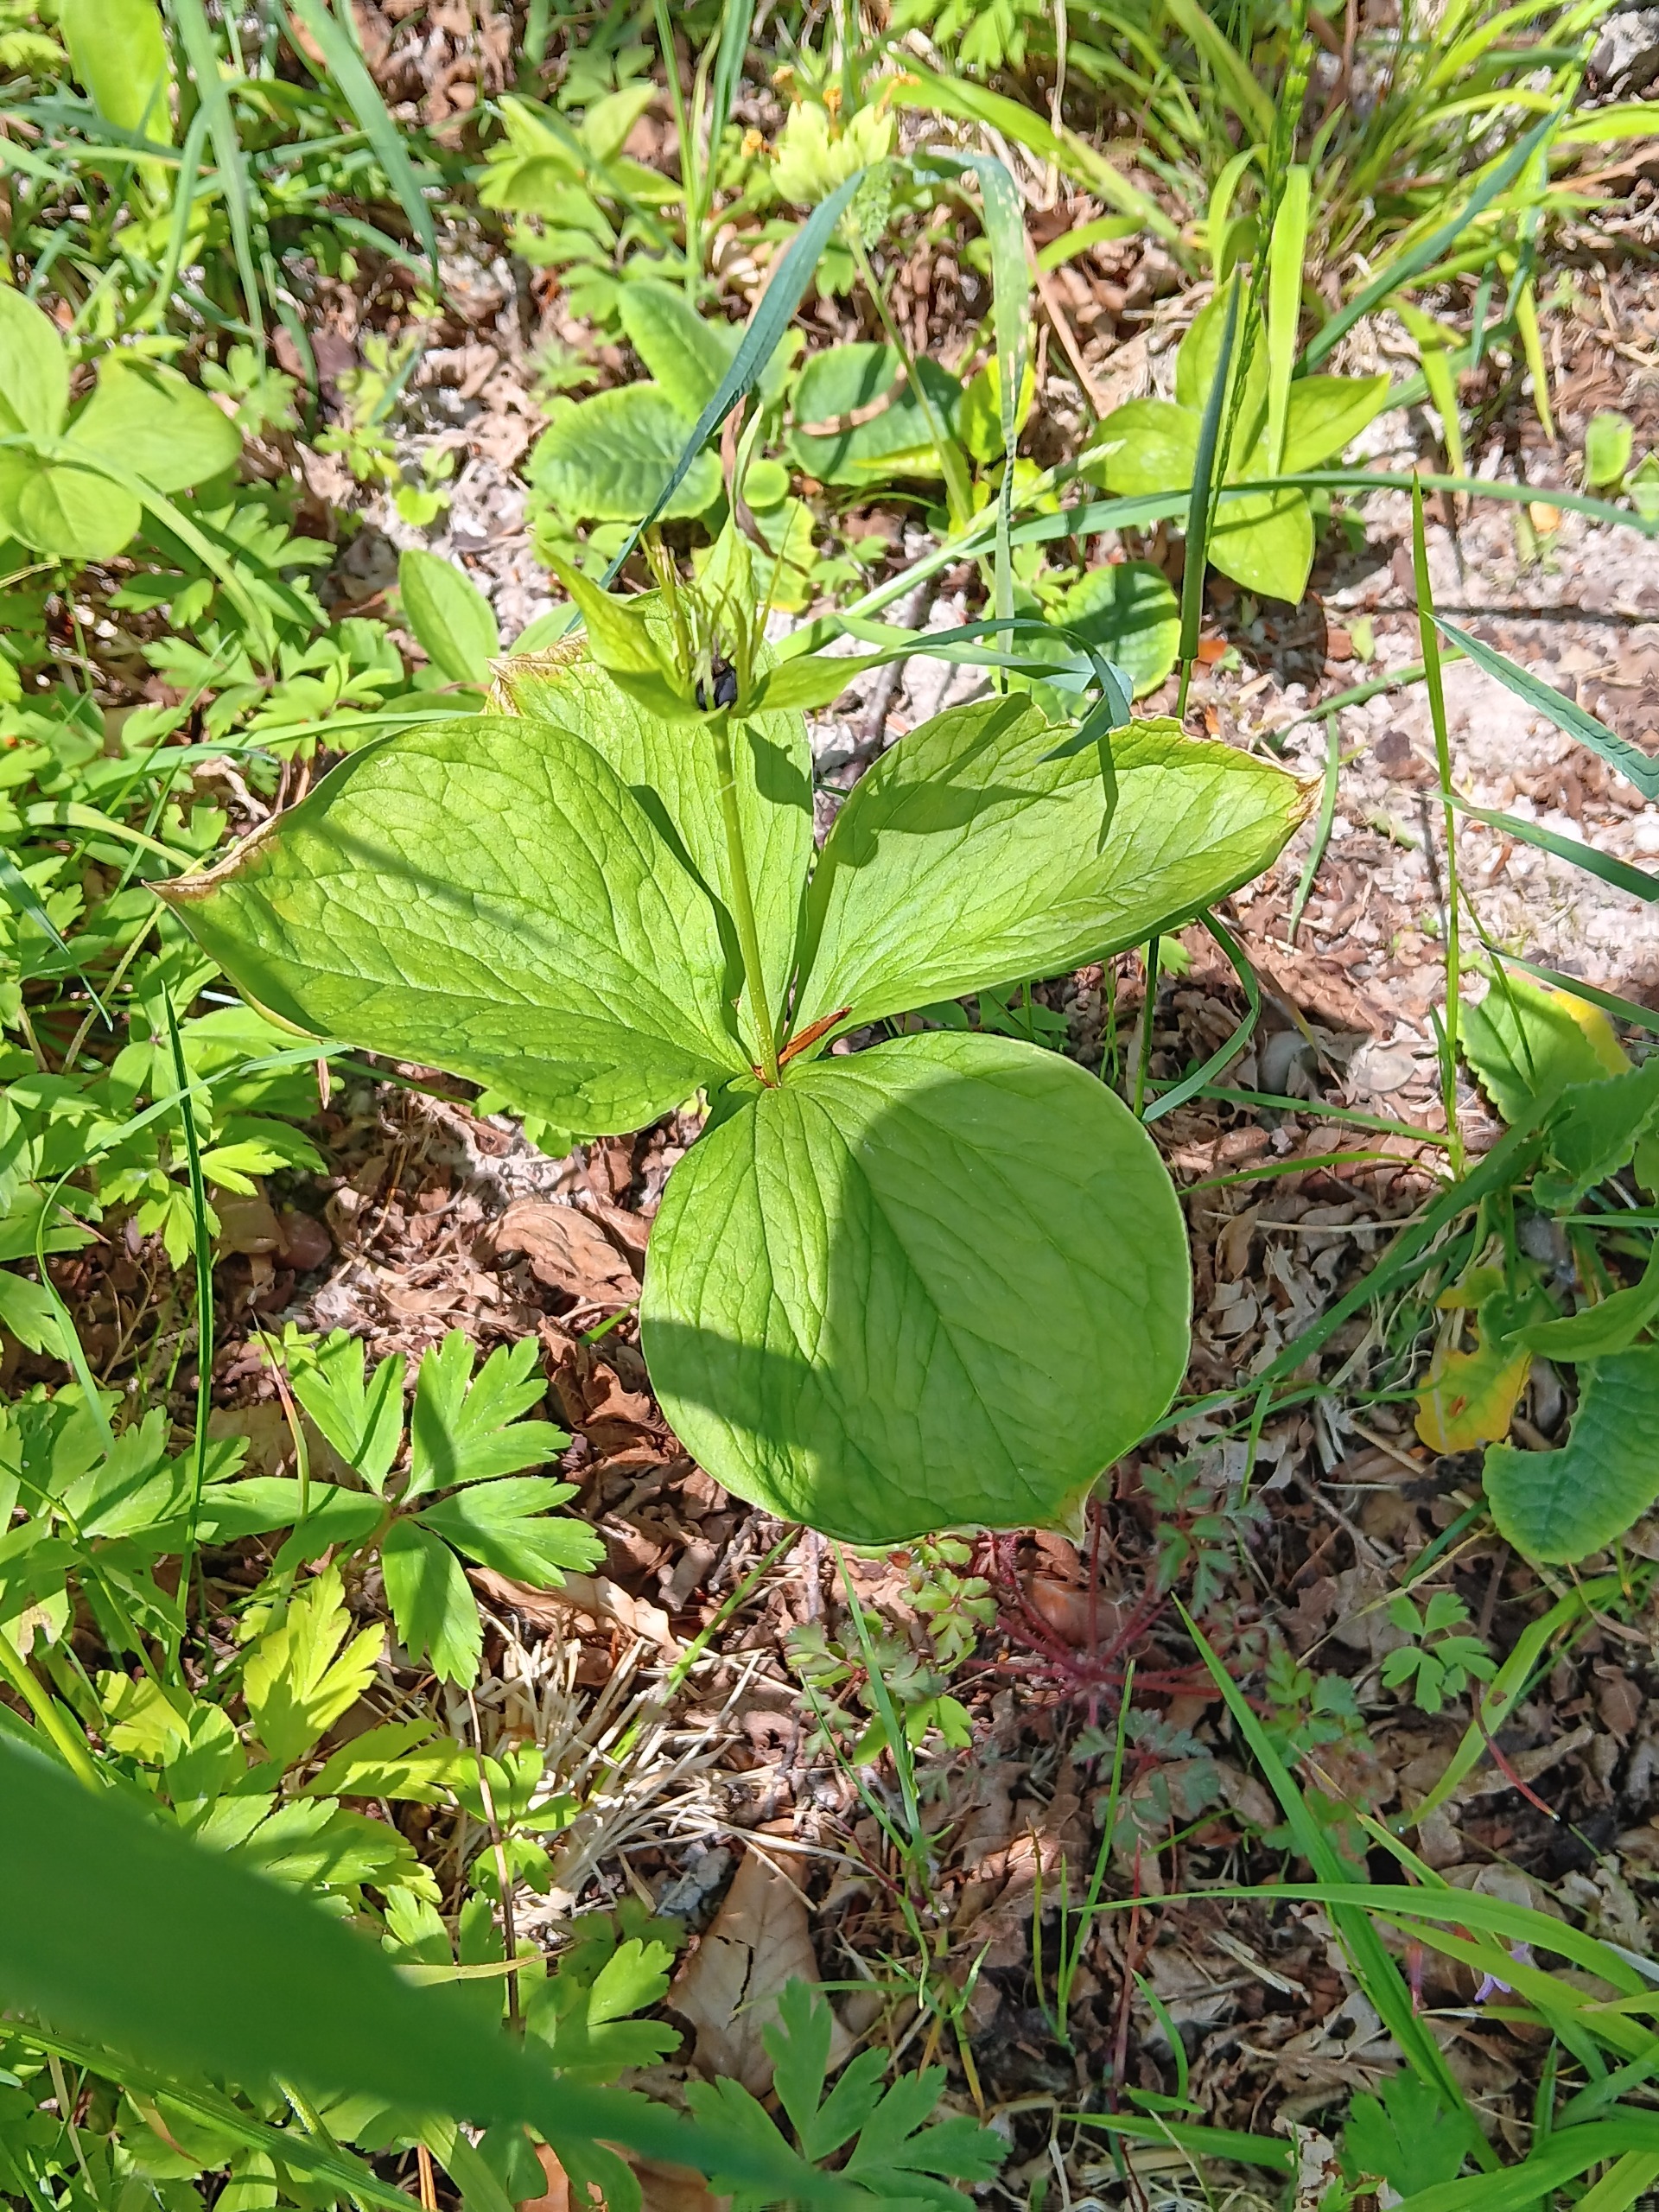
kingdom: Plantae
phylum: Tracheophyta
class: Liliopsida
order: Liliales
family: Melanthiaceae
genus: Paris
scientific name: Paris quadrifolia
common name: Firblad
